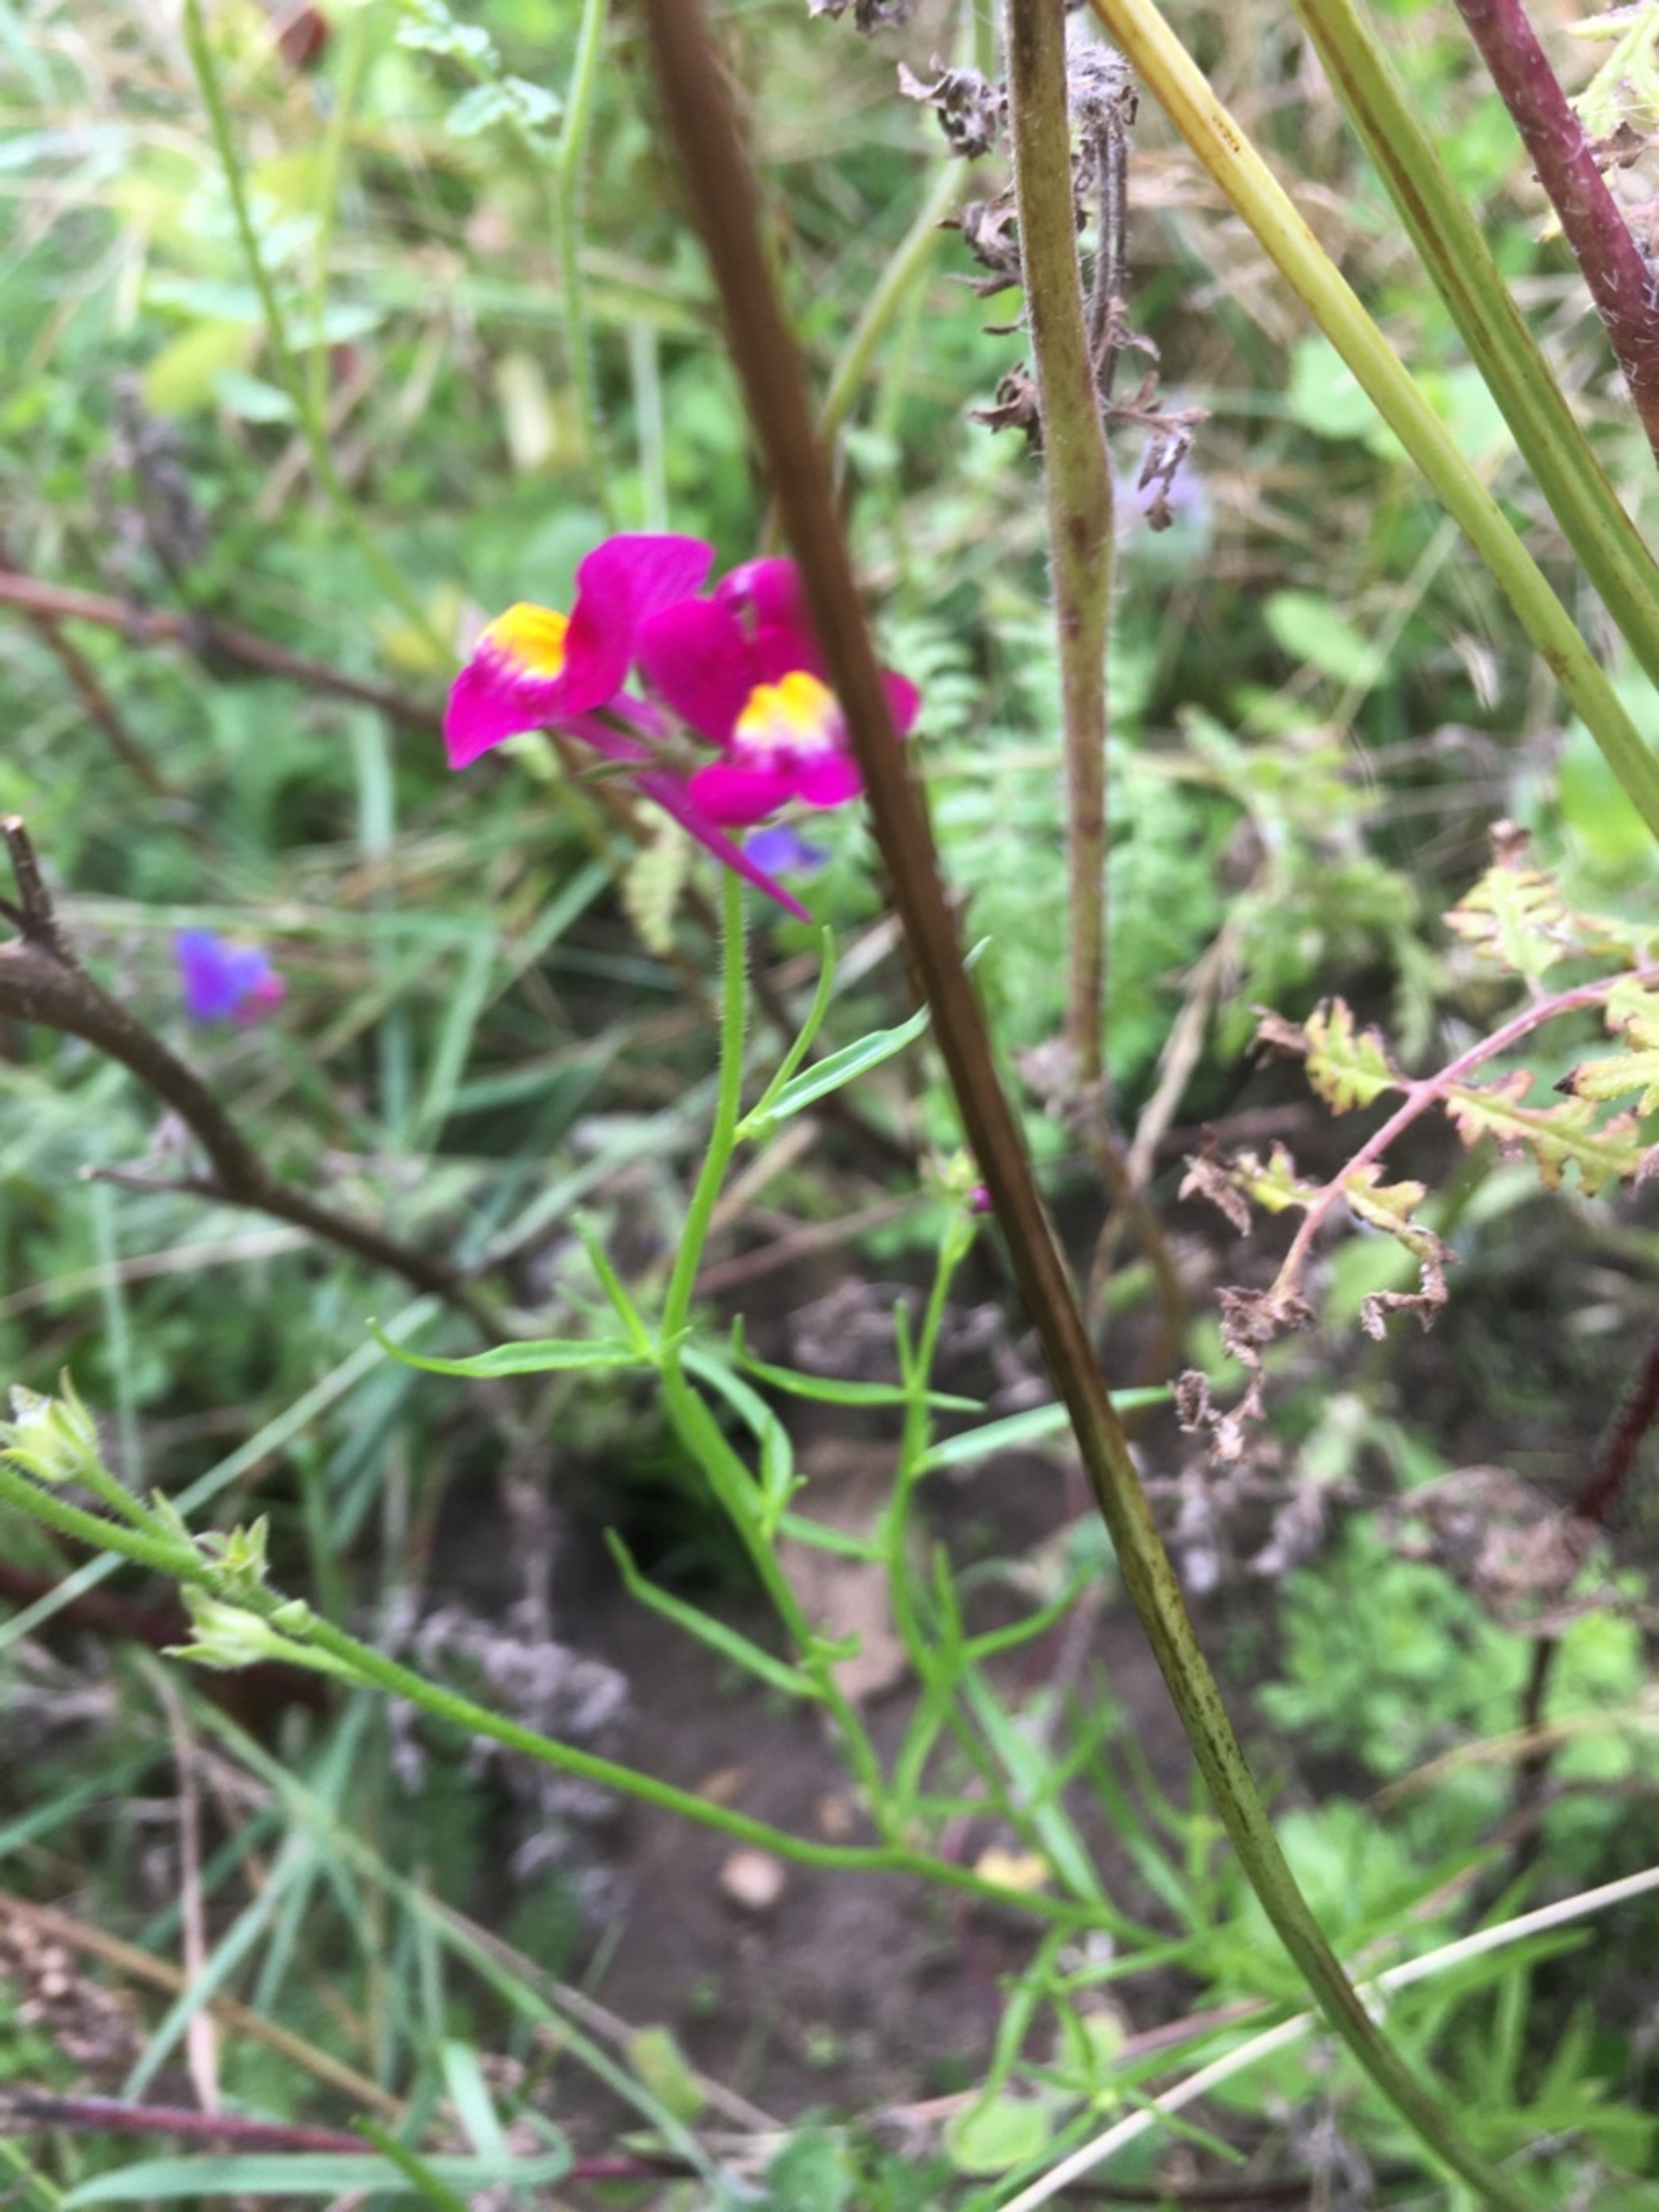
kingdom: Plantae
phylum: Tracheophyta
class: Magnoliopsida
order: Lamiales
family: Plantaginaceae
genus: Linaria
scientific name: Linaria maroccana
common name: Marokkansk torskemund
